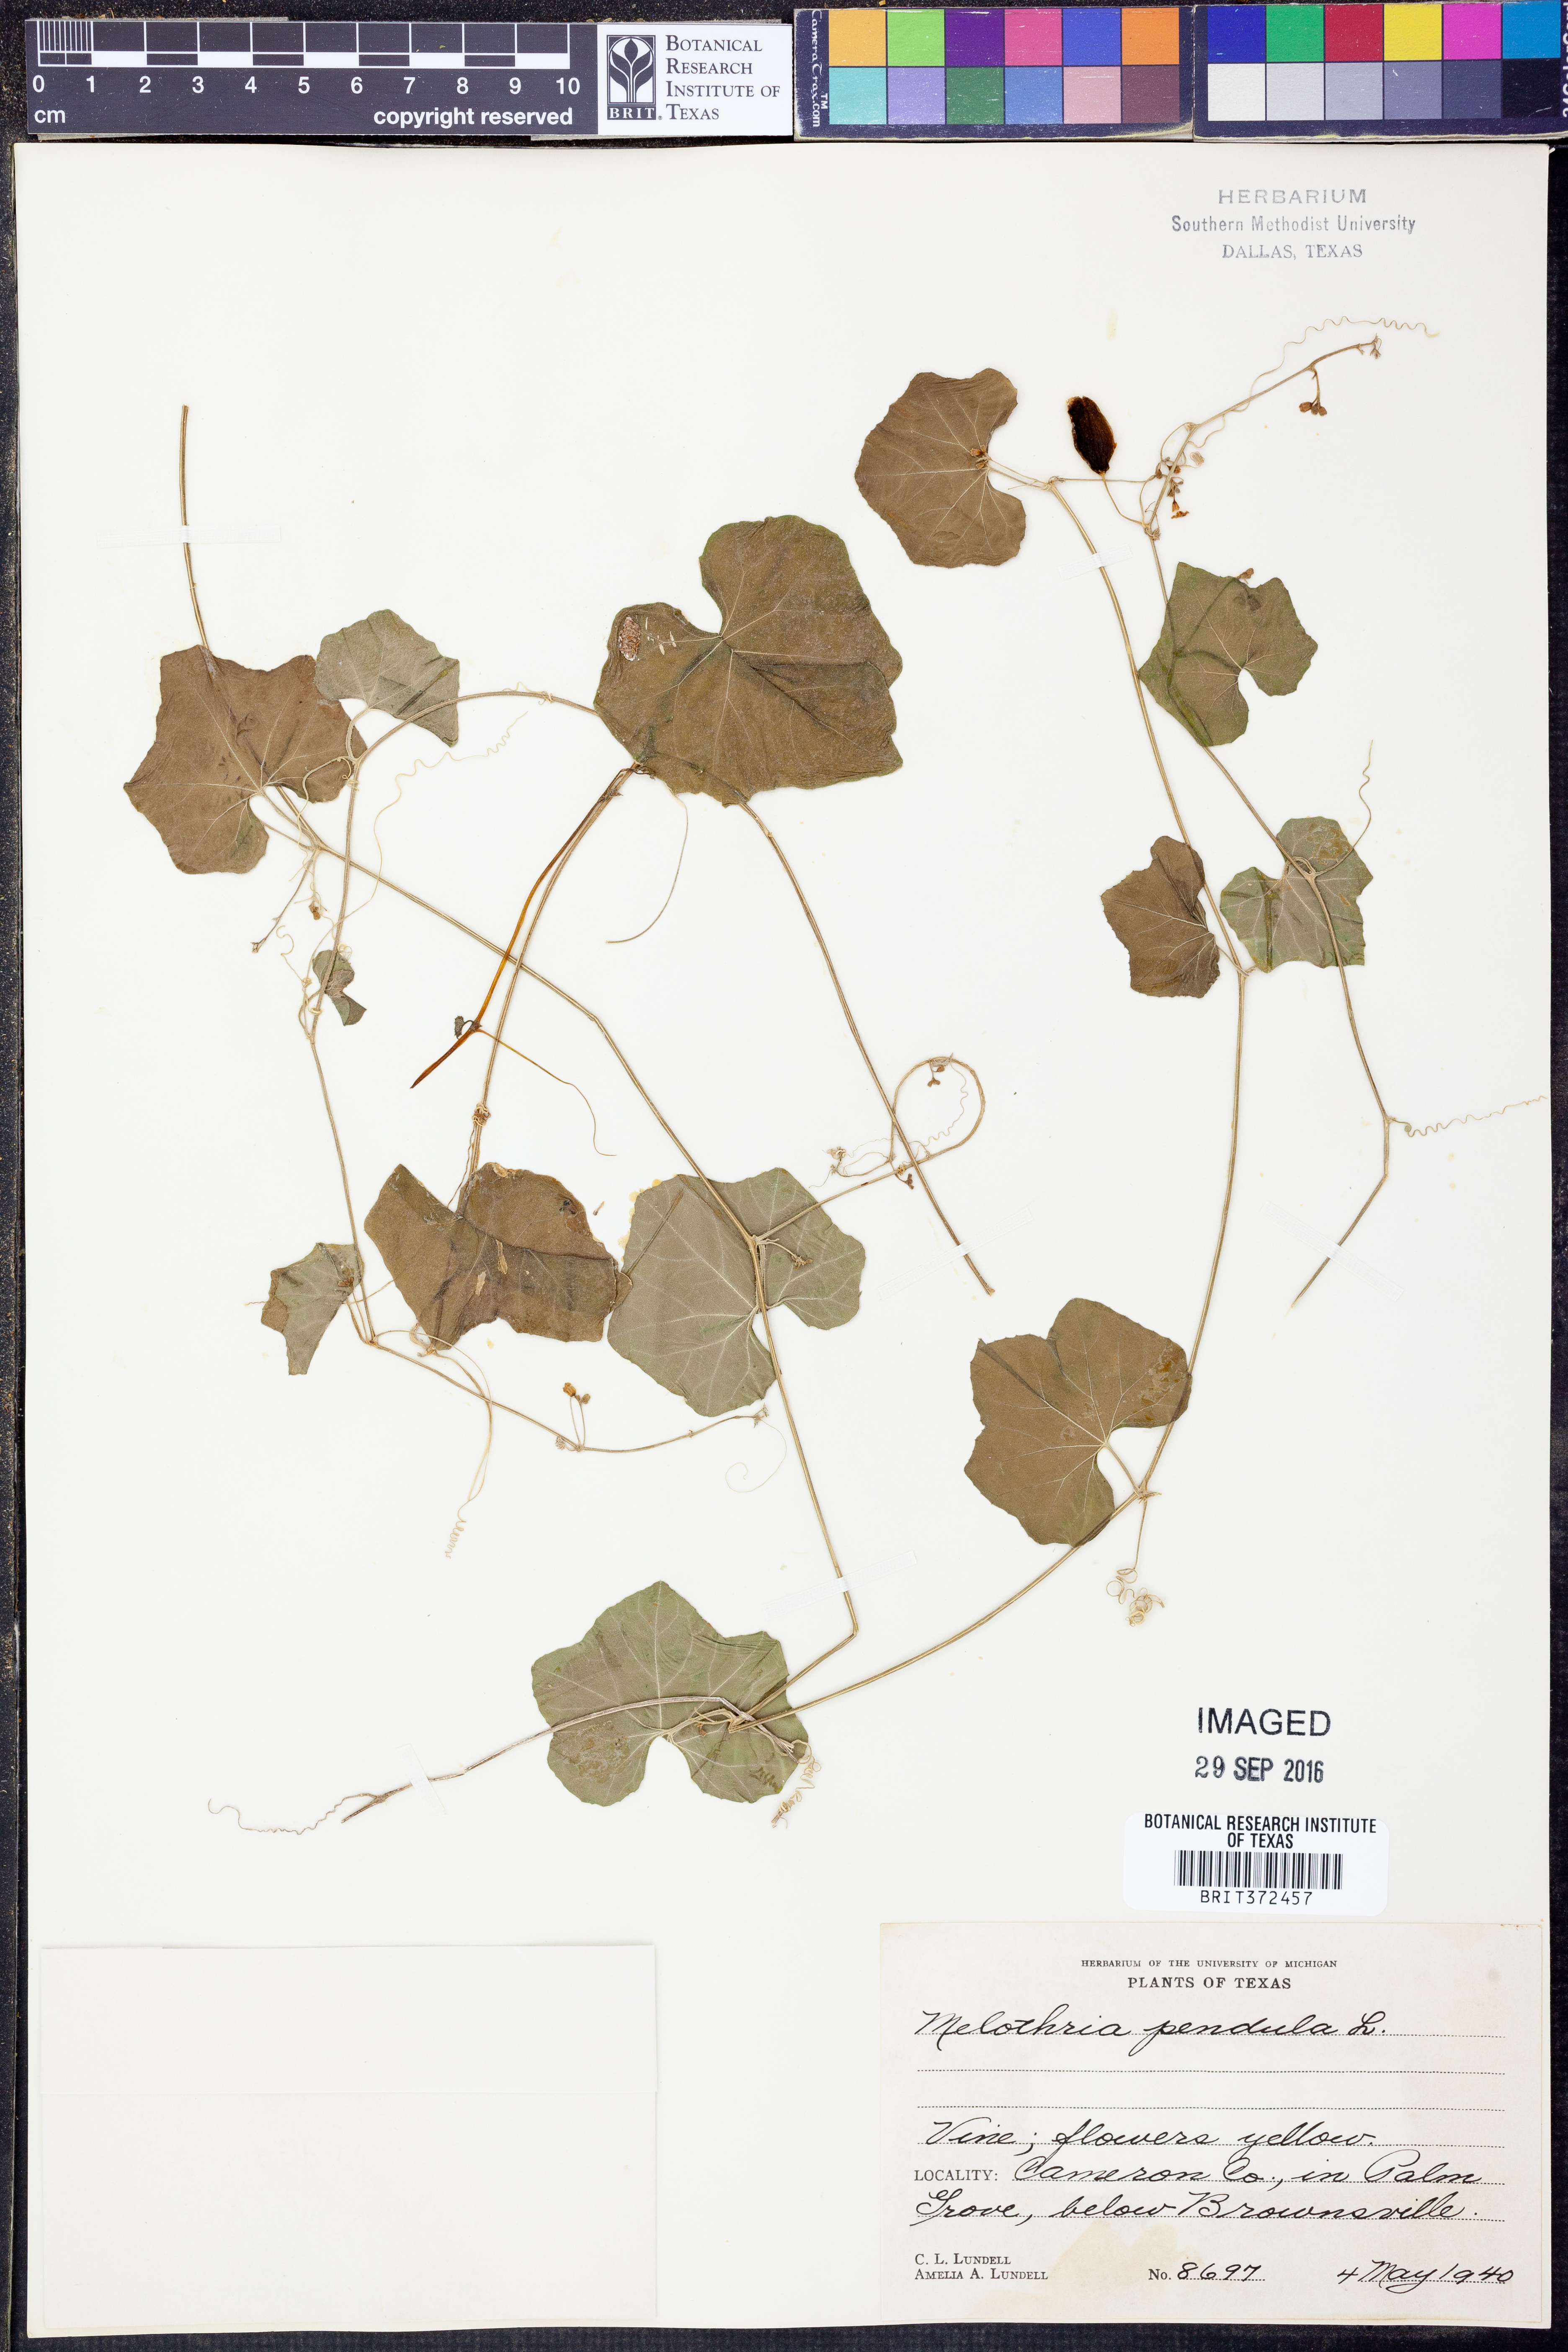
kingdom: Plantae
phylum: Tracheophyta
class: Magnoliopsida
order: Cucurbitales
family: Cucurbitaceae
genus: Melothria
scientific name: Melothria pendula
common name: Creeping-cucumber
